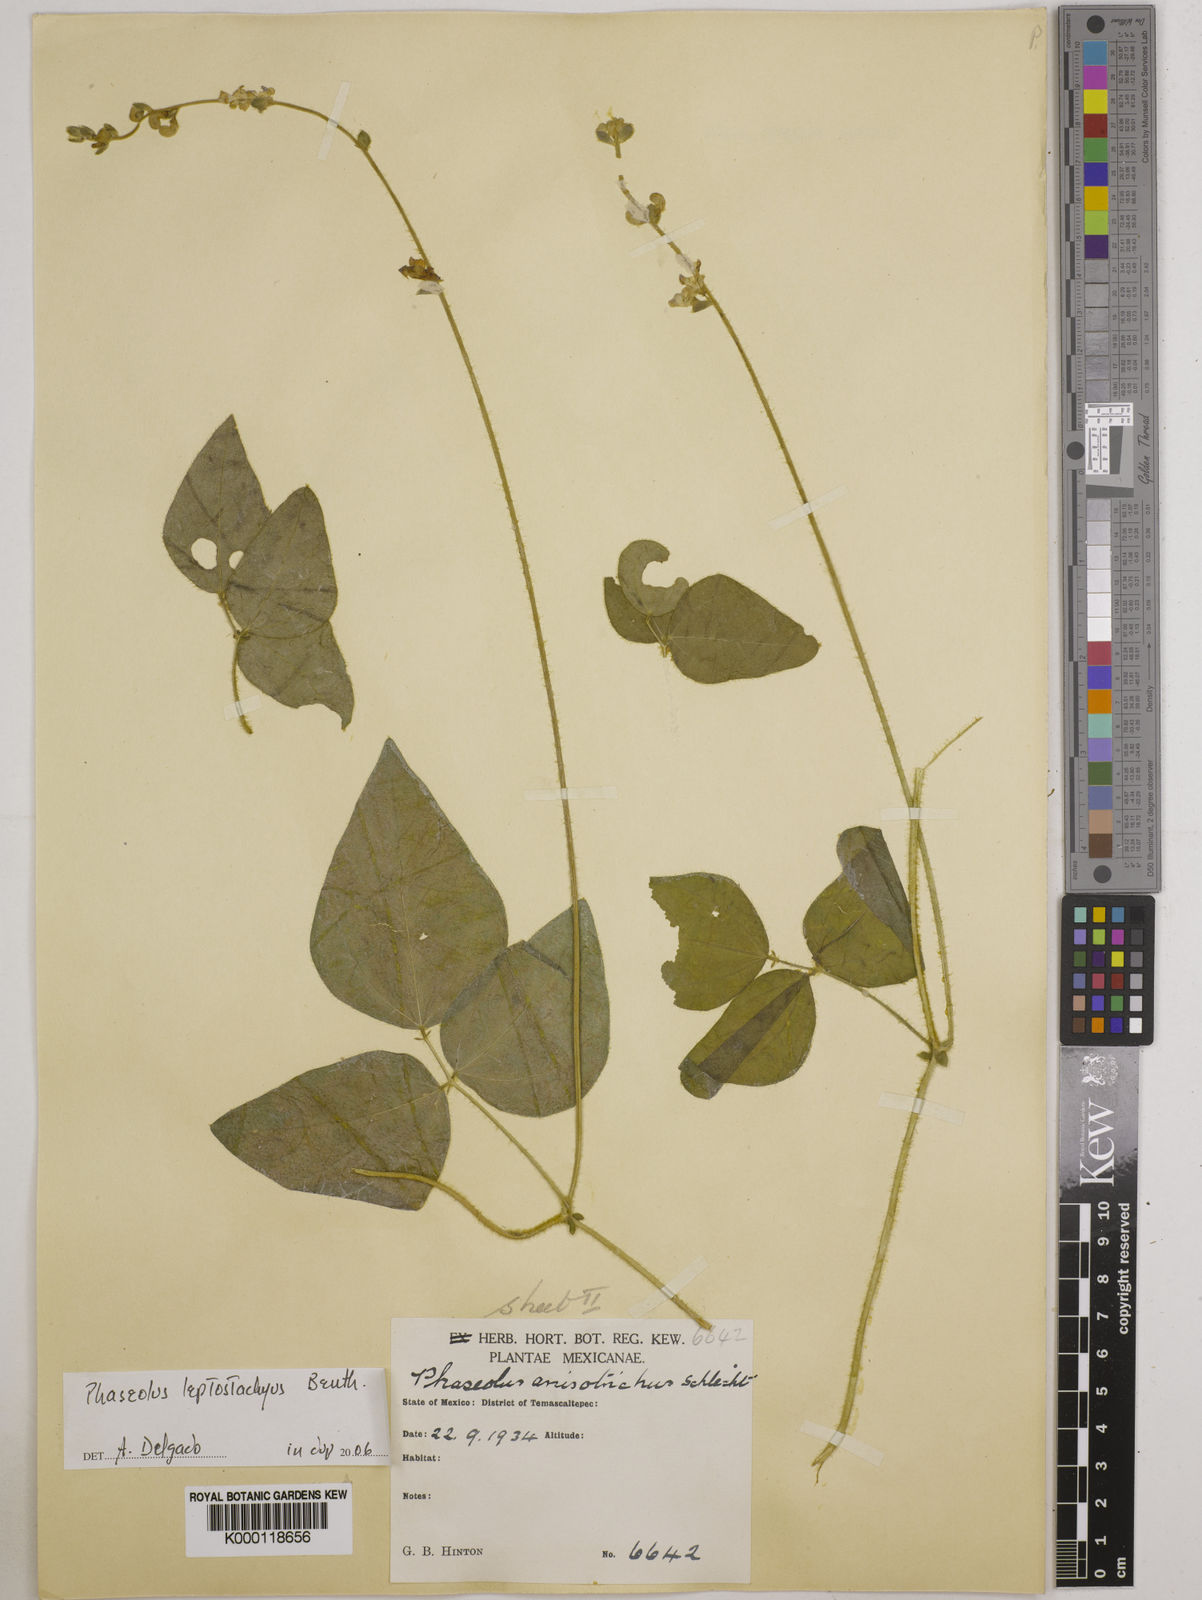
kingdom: Plantae
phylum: Tracheophyta
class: Magnoliopsida
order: Fabales
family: Fabaceae
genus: Phaseolus
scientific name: Phaseolus
